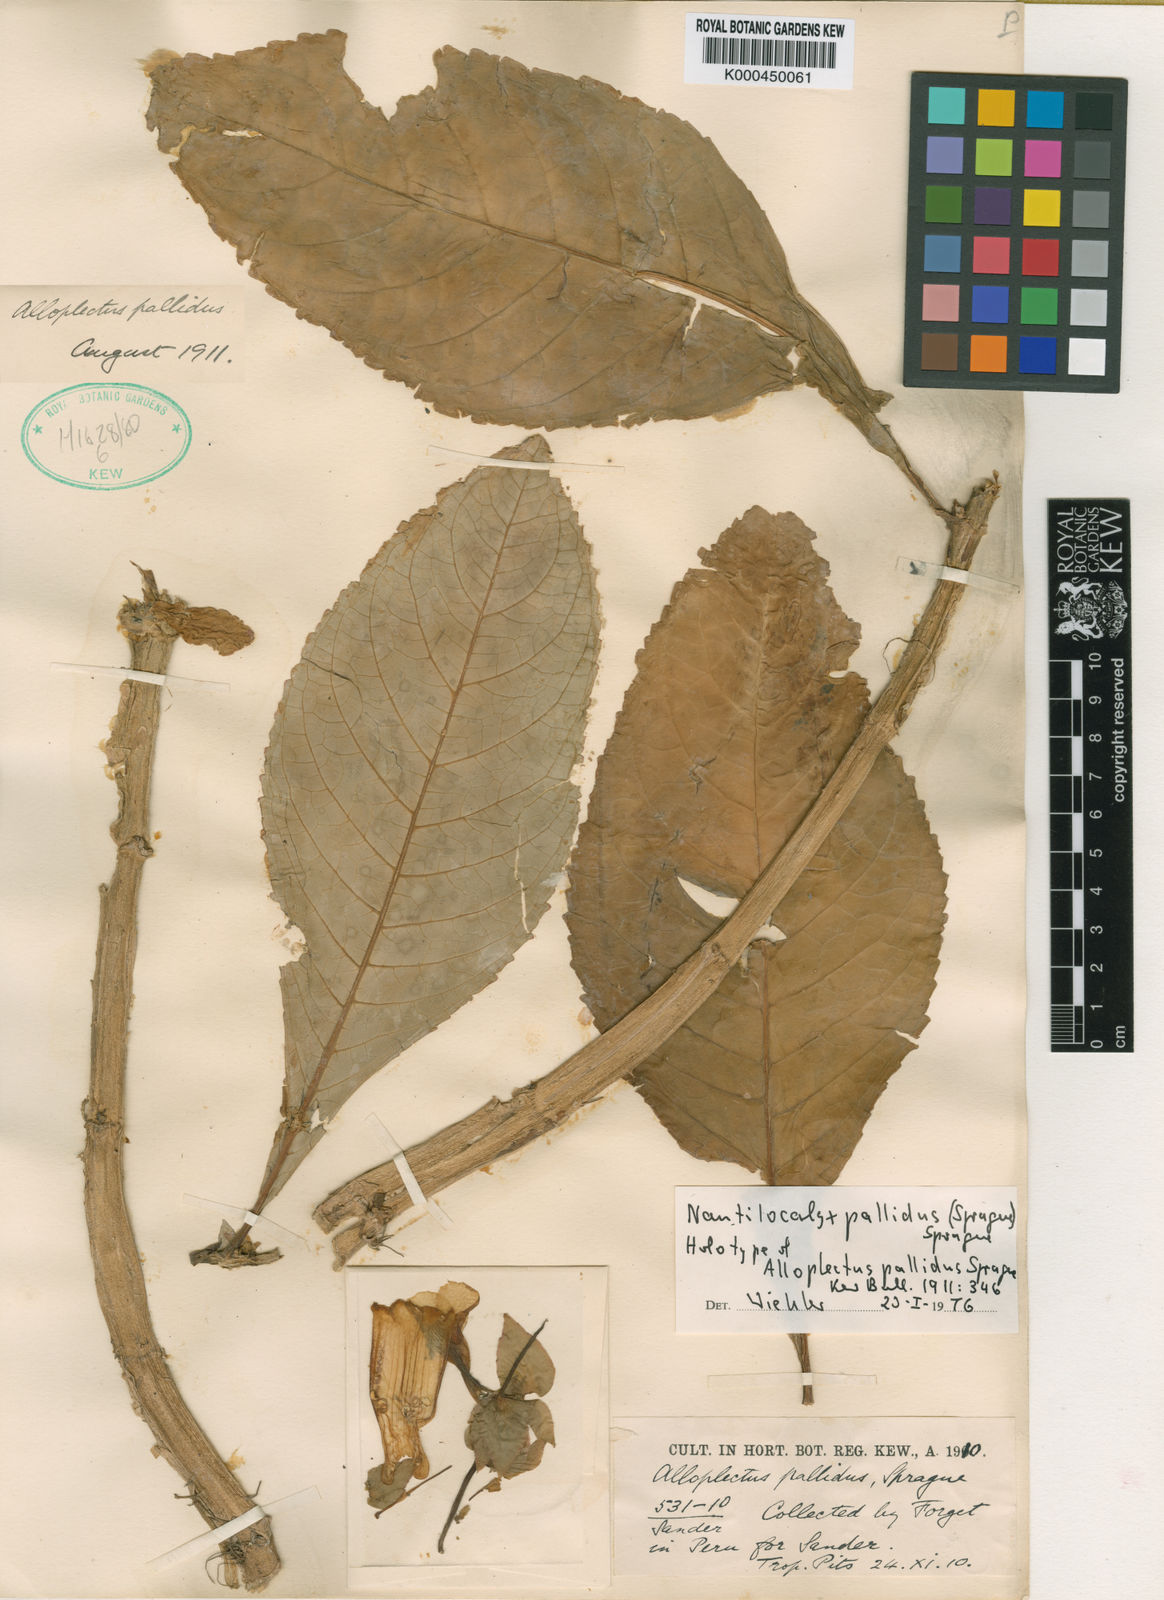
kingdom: Plantae
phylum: Tracheophyta
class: Magnoliopsida
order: Lamiales
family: Gesneriaceae
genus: Nautilocalyx
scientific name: Nautilocalyx pallidus
